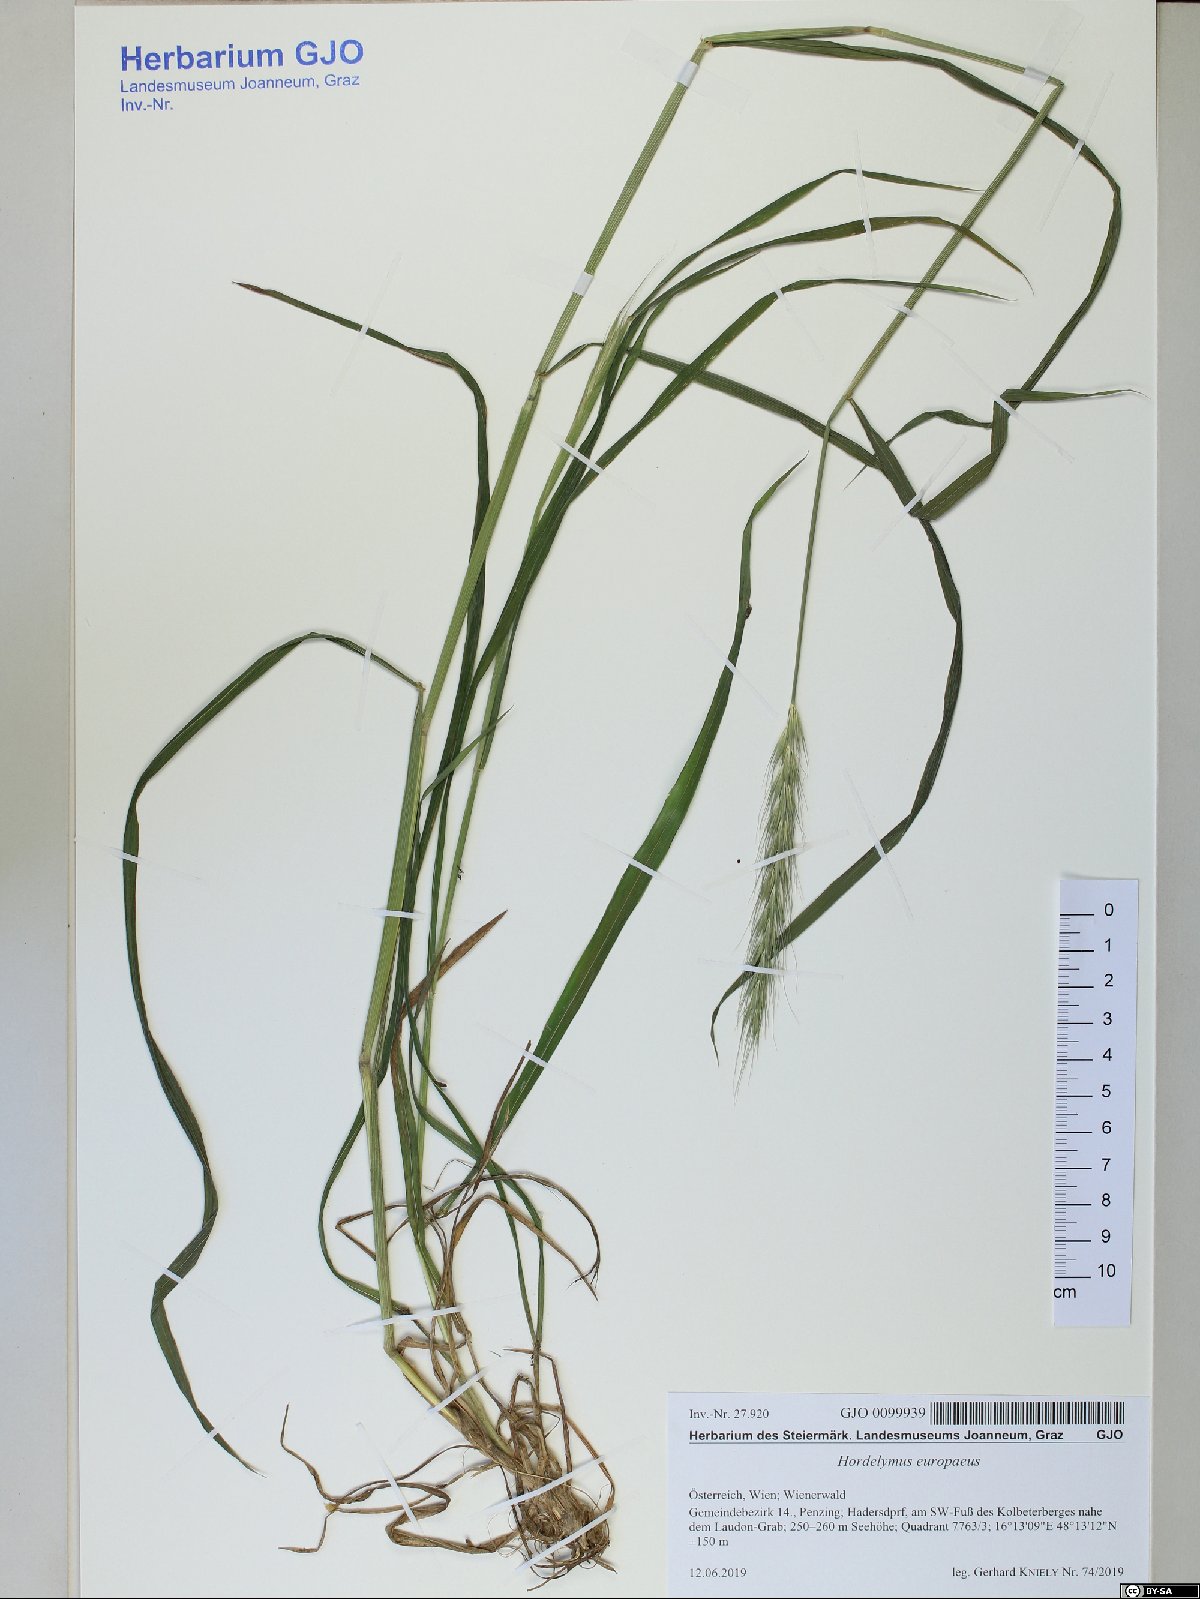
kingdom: Plantae
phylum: Tracheophyta
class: Liliopsida
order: Poales
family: Poaceae
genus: Hordelymus
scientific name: Hordelymus europaeus
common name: Wood-barley
